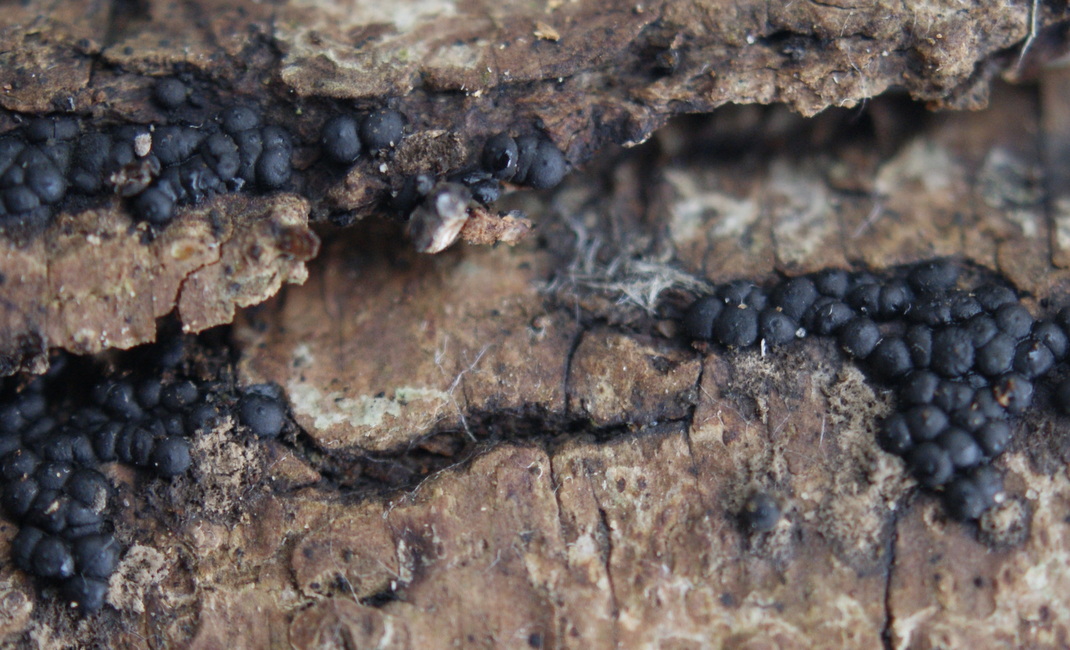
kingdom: Fungi
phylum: Ascomycota
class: Sordariomycetes
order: Xylariales
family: Xylariaceae
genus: Rosellinia
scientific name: Rosellinia marcucciana
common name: måtteløs kulkaviar
